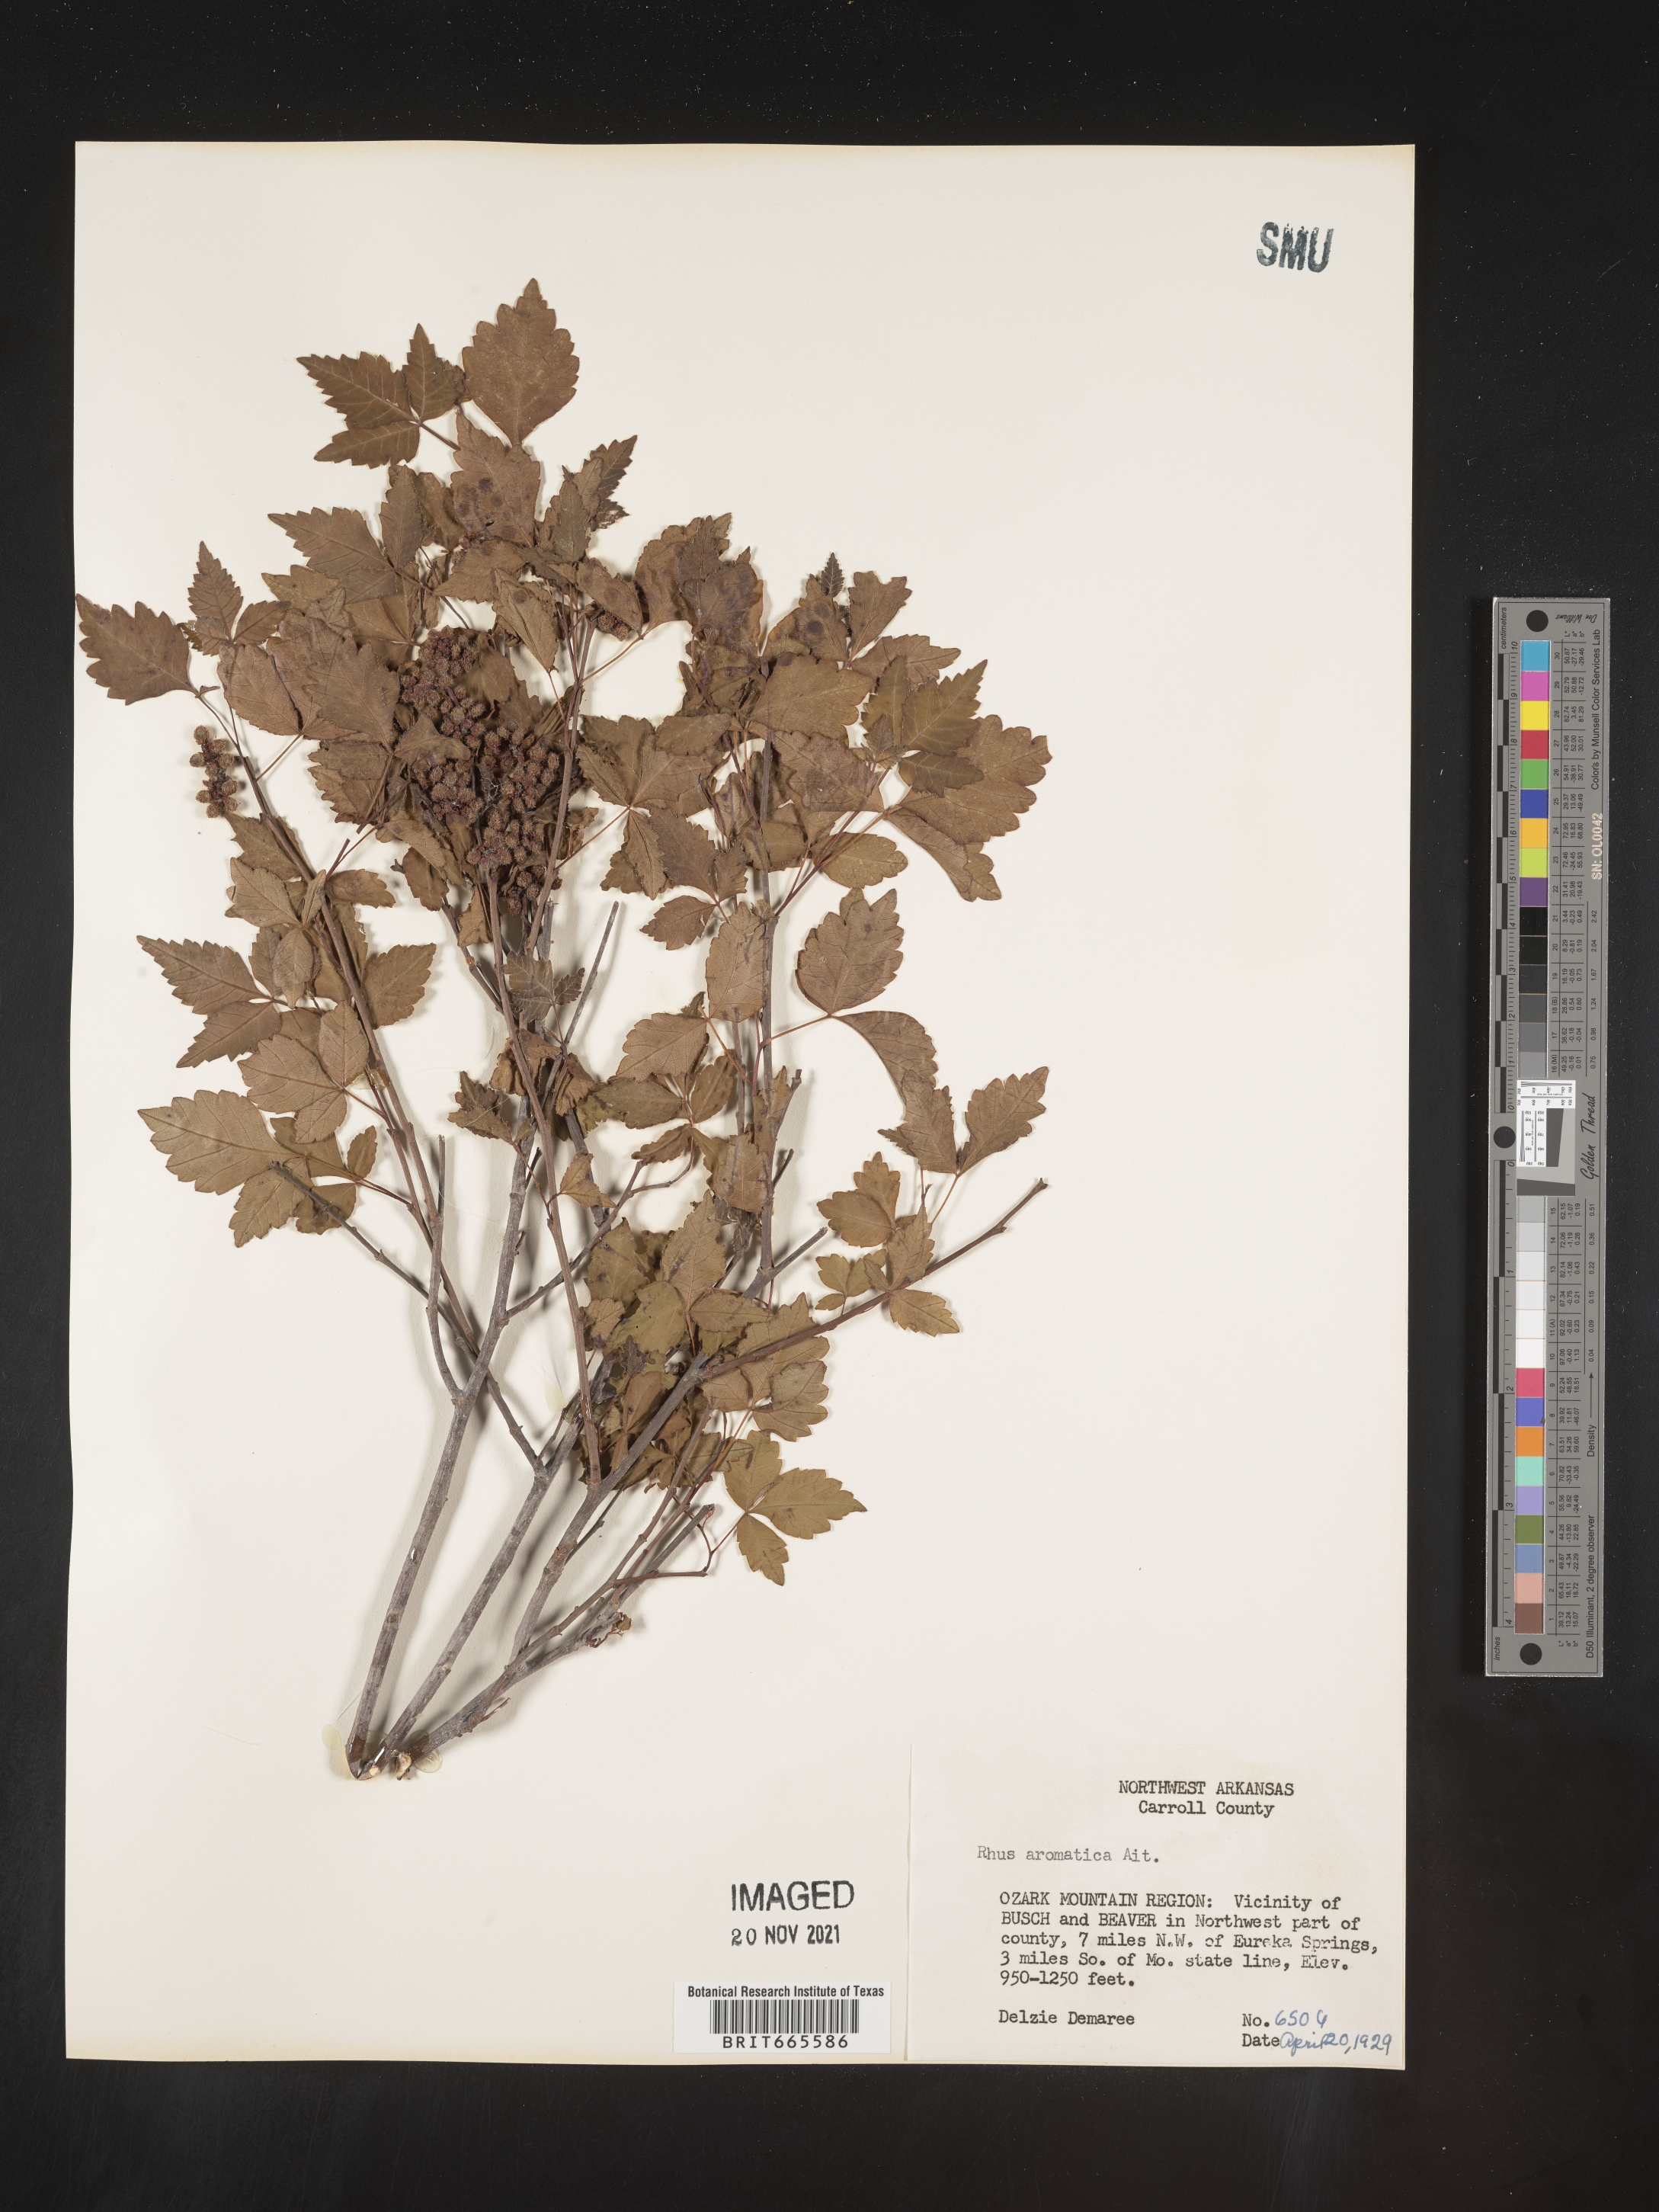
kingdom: Plantae
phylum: Tracheophyta
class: Magnoliopsida
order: Sapindales
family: Anacardiaceae
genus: Rhus
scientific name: Rhus aromatica
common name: Aromatic sumac
